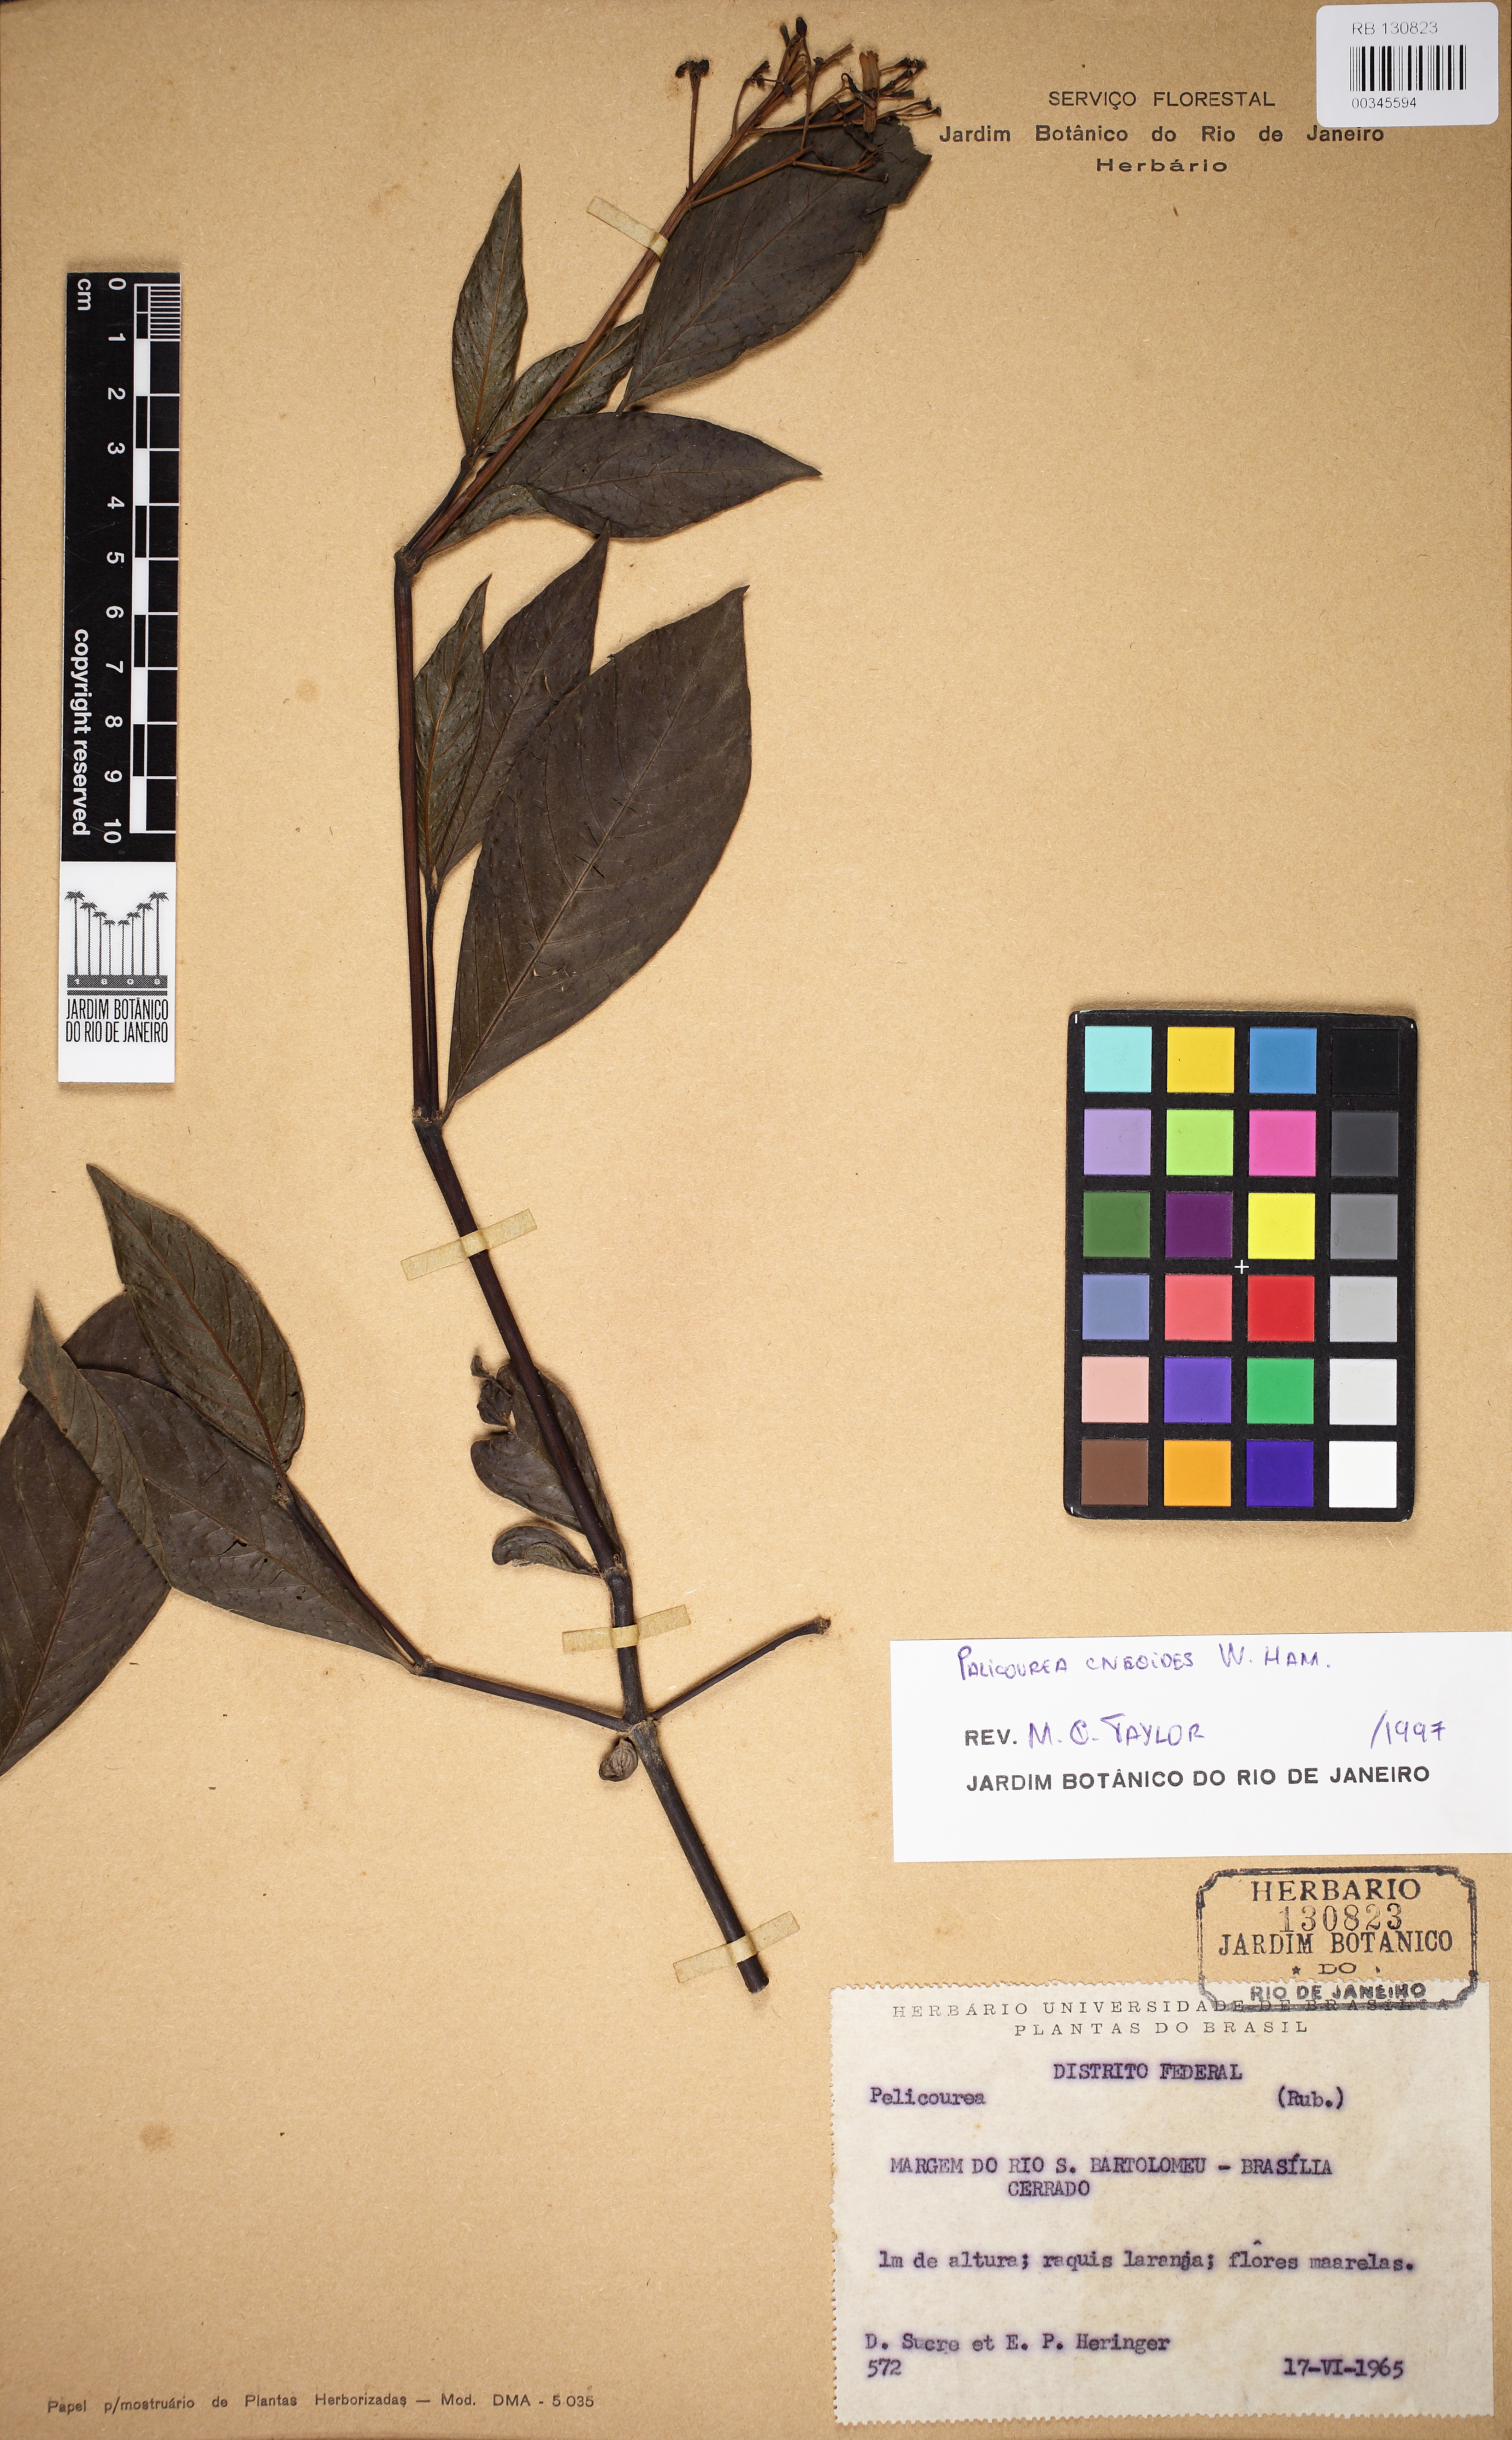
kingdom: Plantae
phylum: Tracheophyta
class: Magnoliopsida
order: Gentianales
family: Rubiaceae
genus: Palicourea
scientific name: Palicourea
